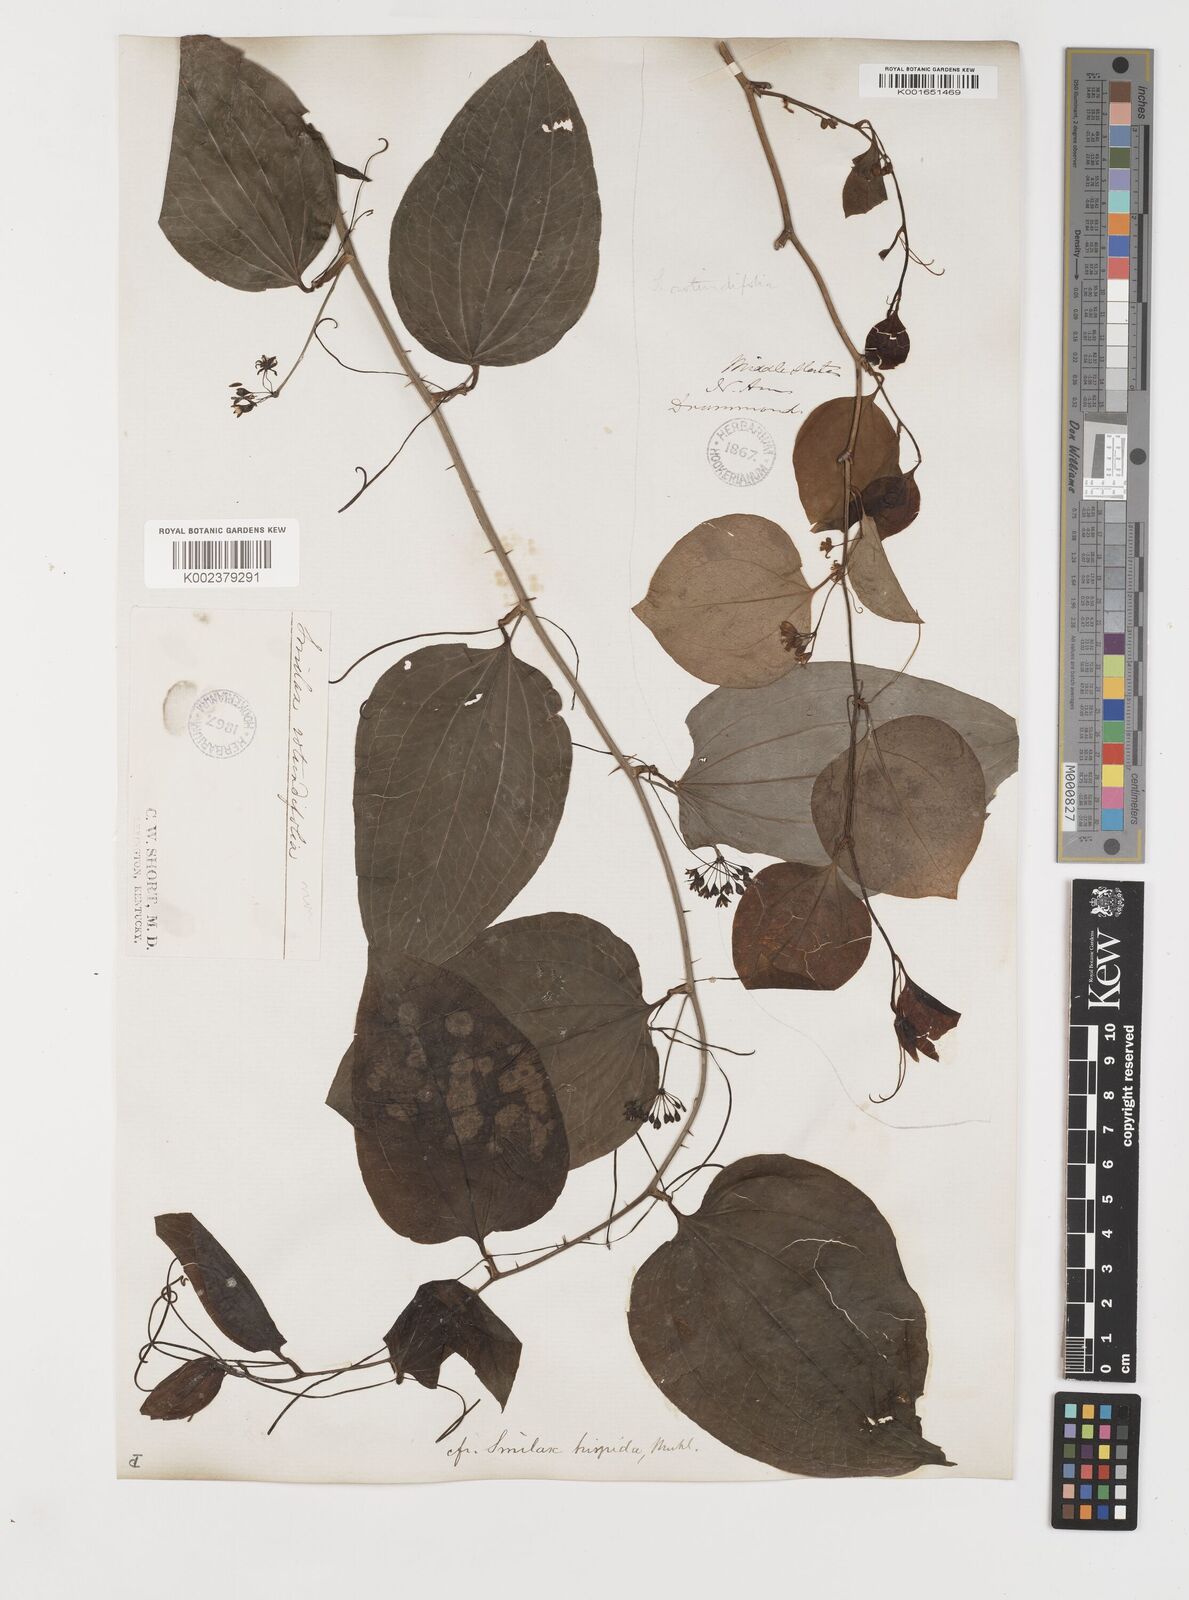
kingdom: Plantae
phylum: Tracheophyta
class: Liliopsida
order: Liliales
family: Smilacaceae
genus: Smilax
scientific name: Smilax tamnoides
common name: Hellfetter
